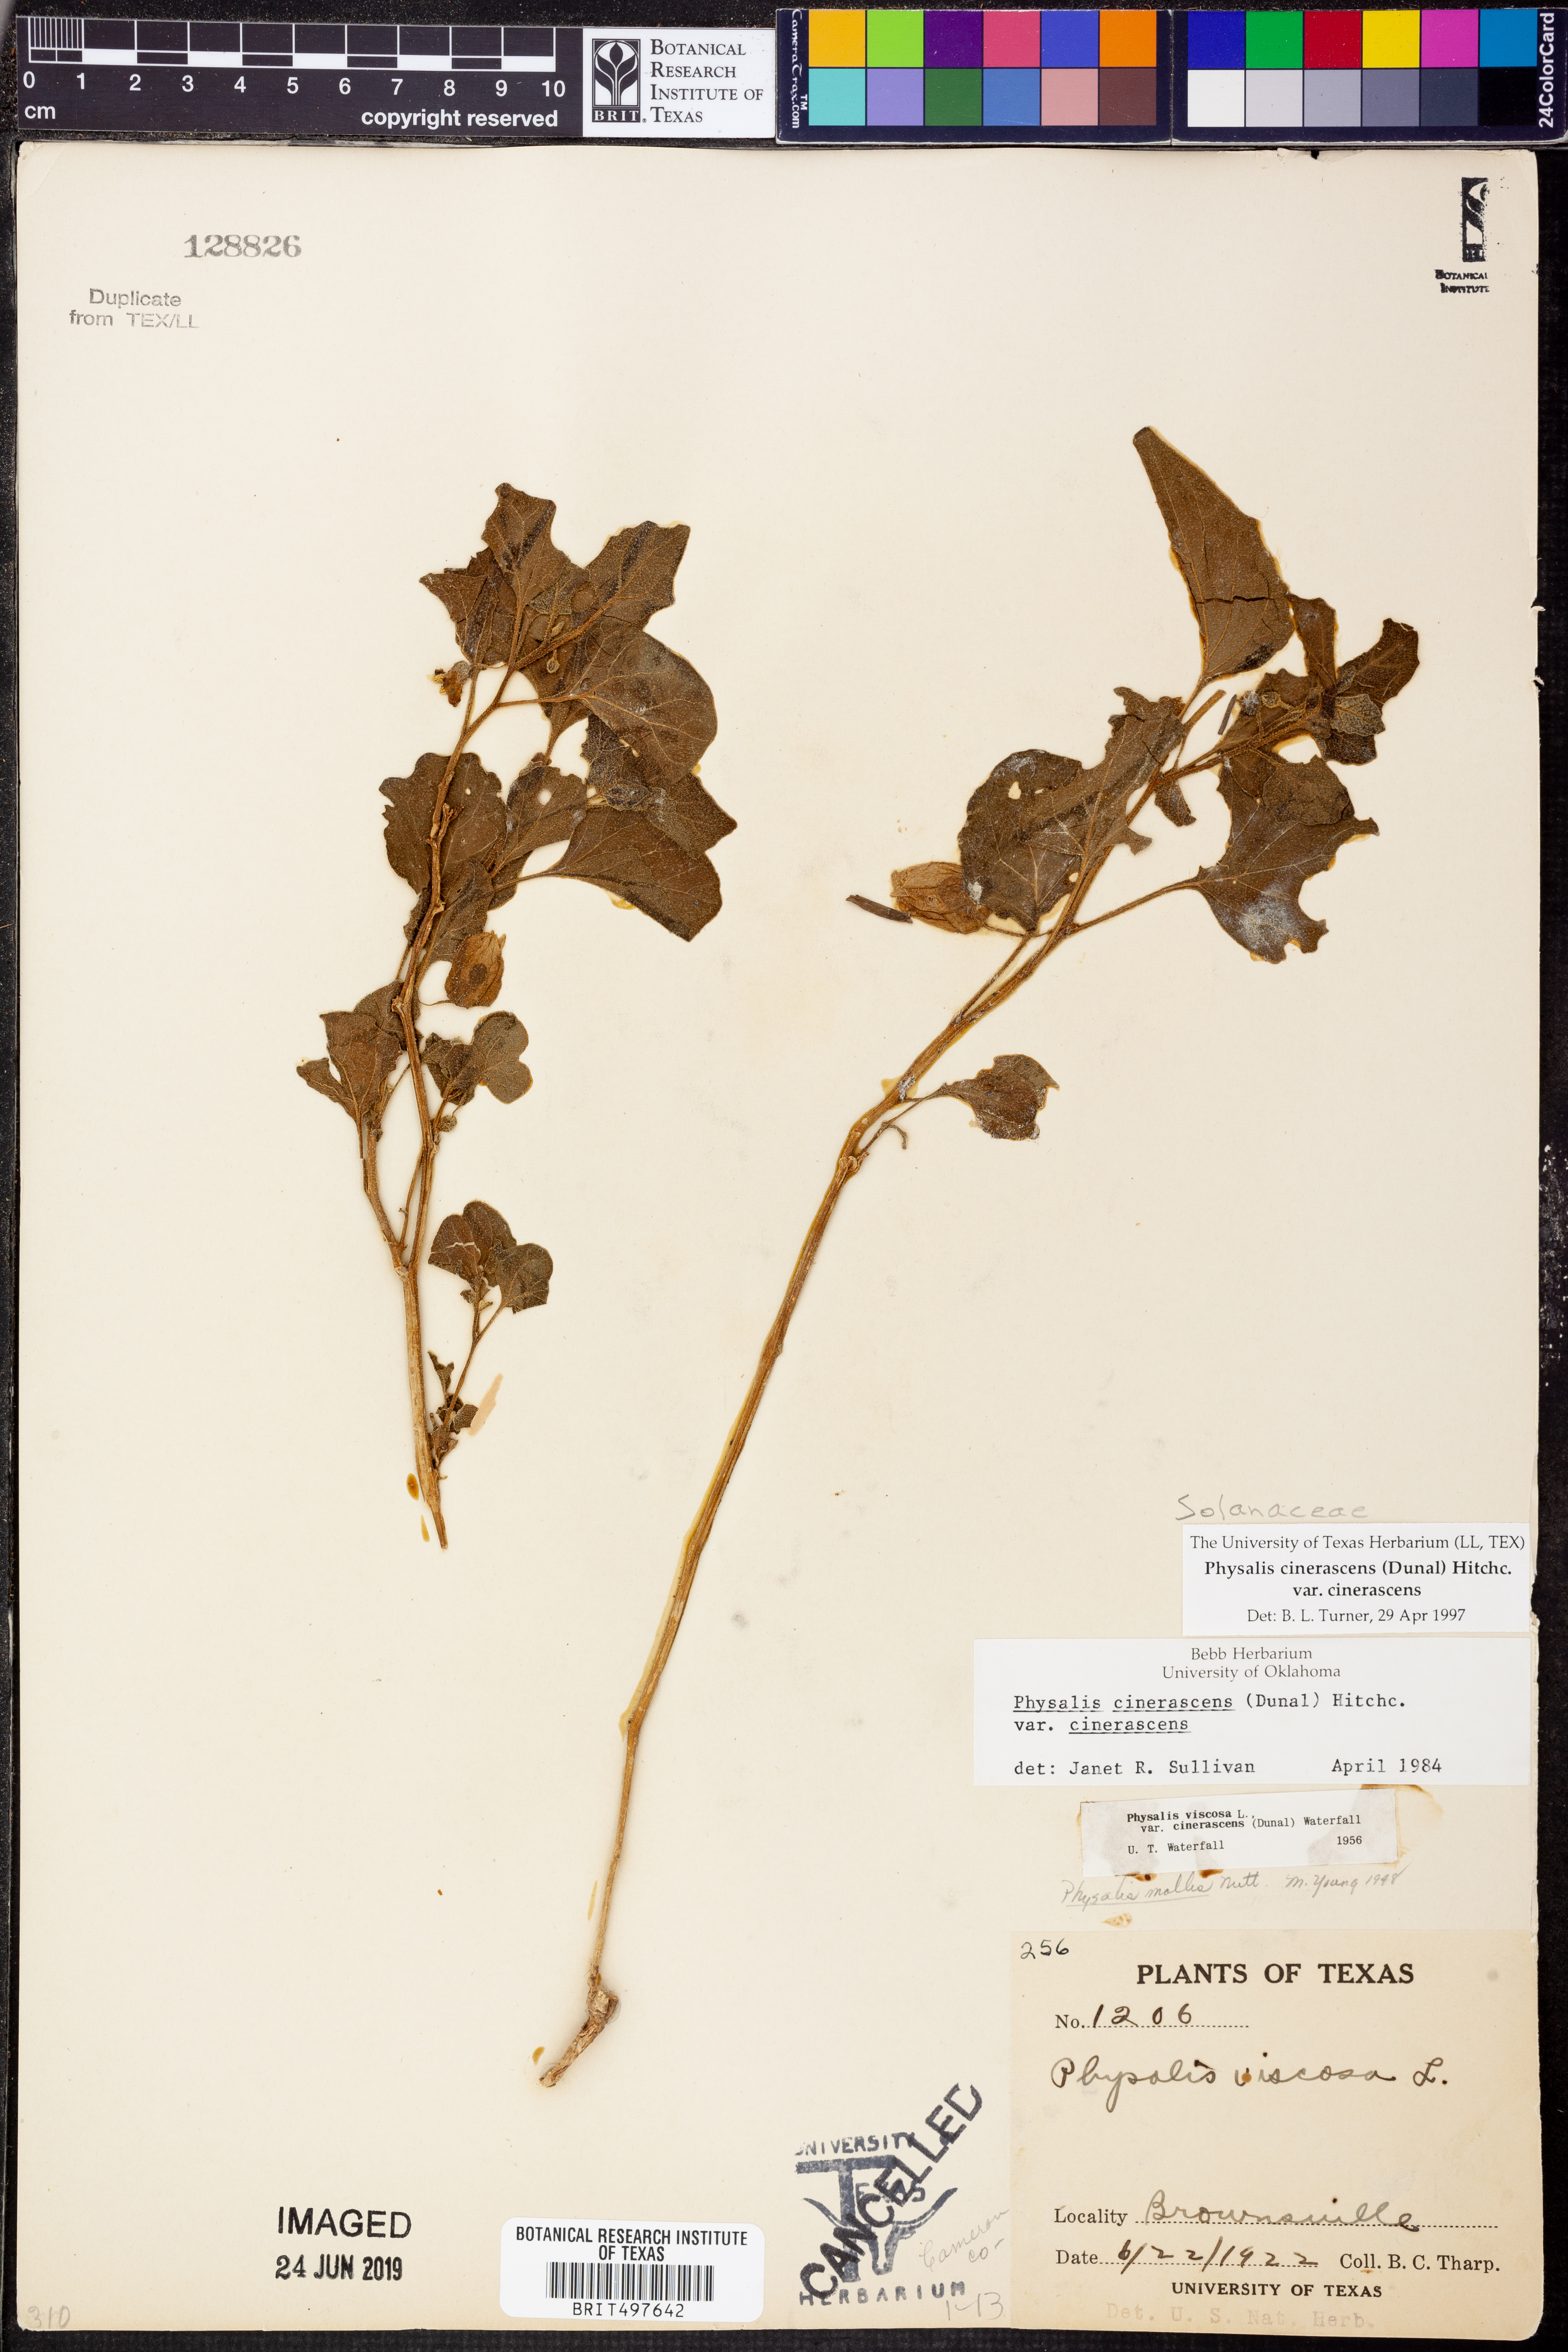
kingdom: Plantae
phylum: Tracheophyta
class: Magnoliopsida
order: Solanales
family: Solanaceae
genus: Physalis
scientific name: Physalis cinerascens
